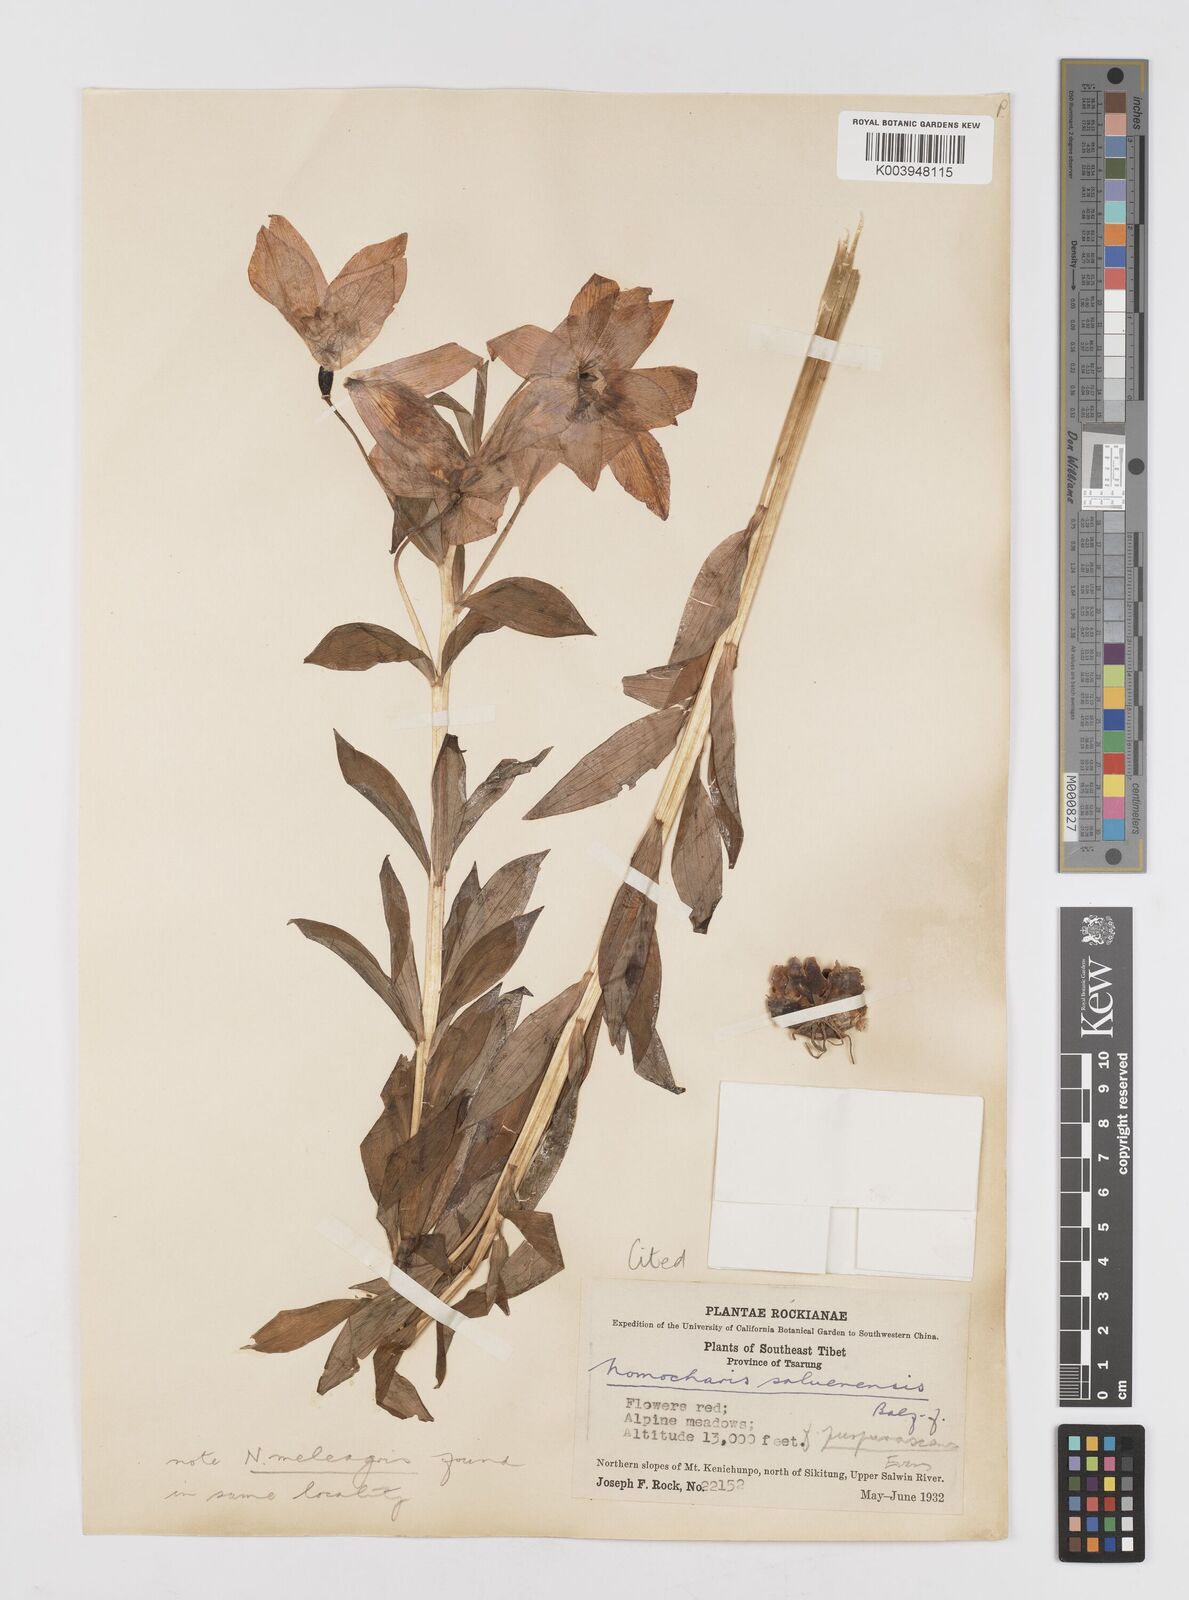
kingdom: Plantae
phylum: Tracheophyta
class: Liliopsida
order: Liliales
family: Liliaceae
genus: Lilium
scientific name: Lilium saluenense
